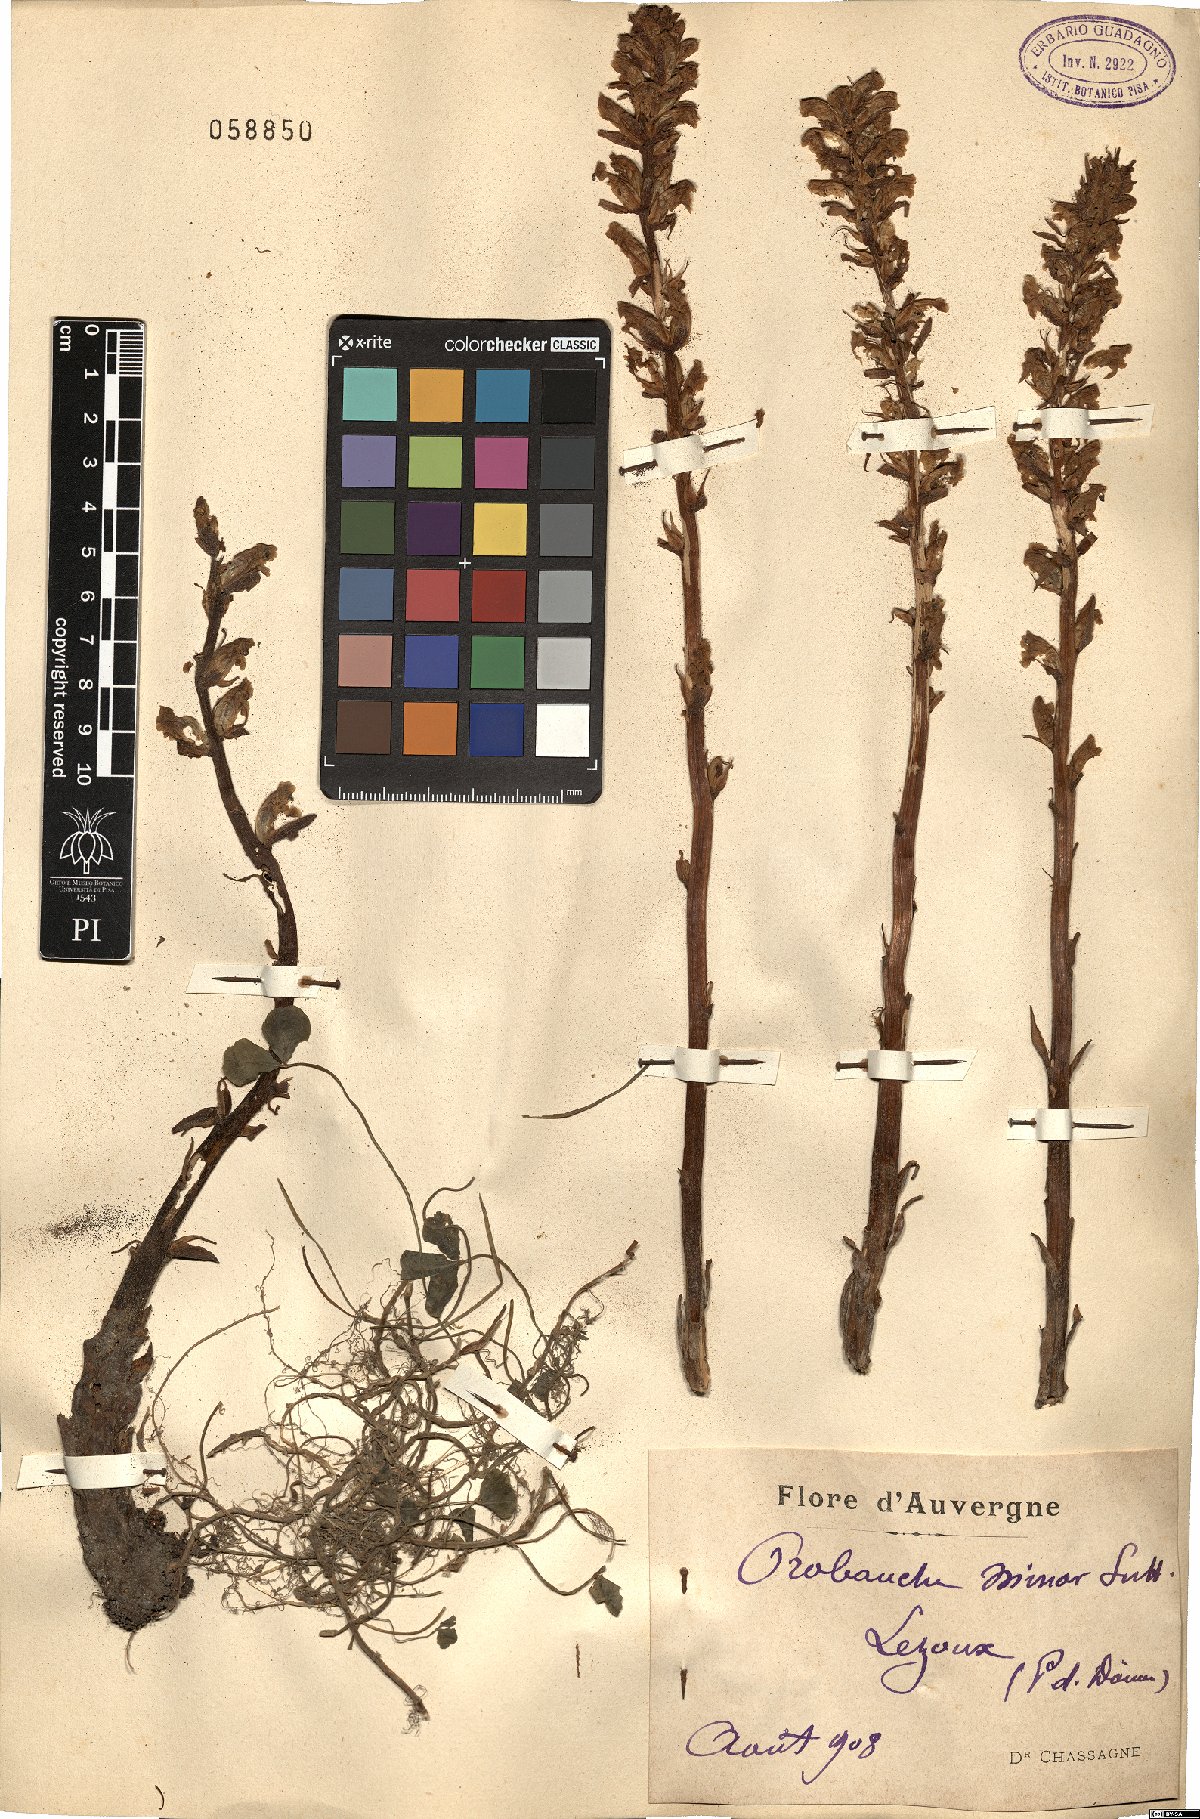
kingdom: Plantae
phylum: Tracheophyta
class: Magnoliopsida
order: Lamiales
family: Orobanchaceae
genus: Orobanche
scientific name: Orobanche minor
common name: Common broomrape
